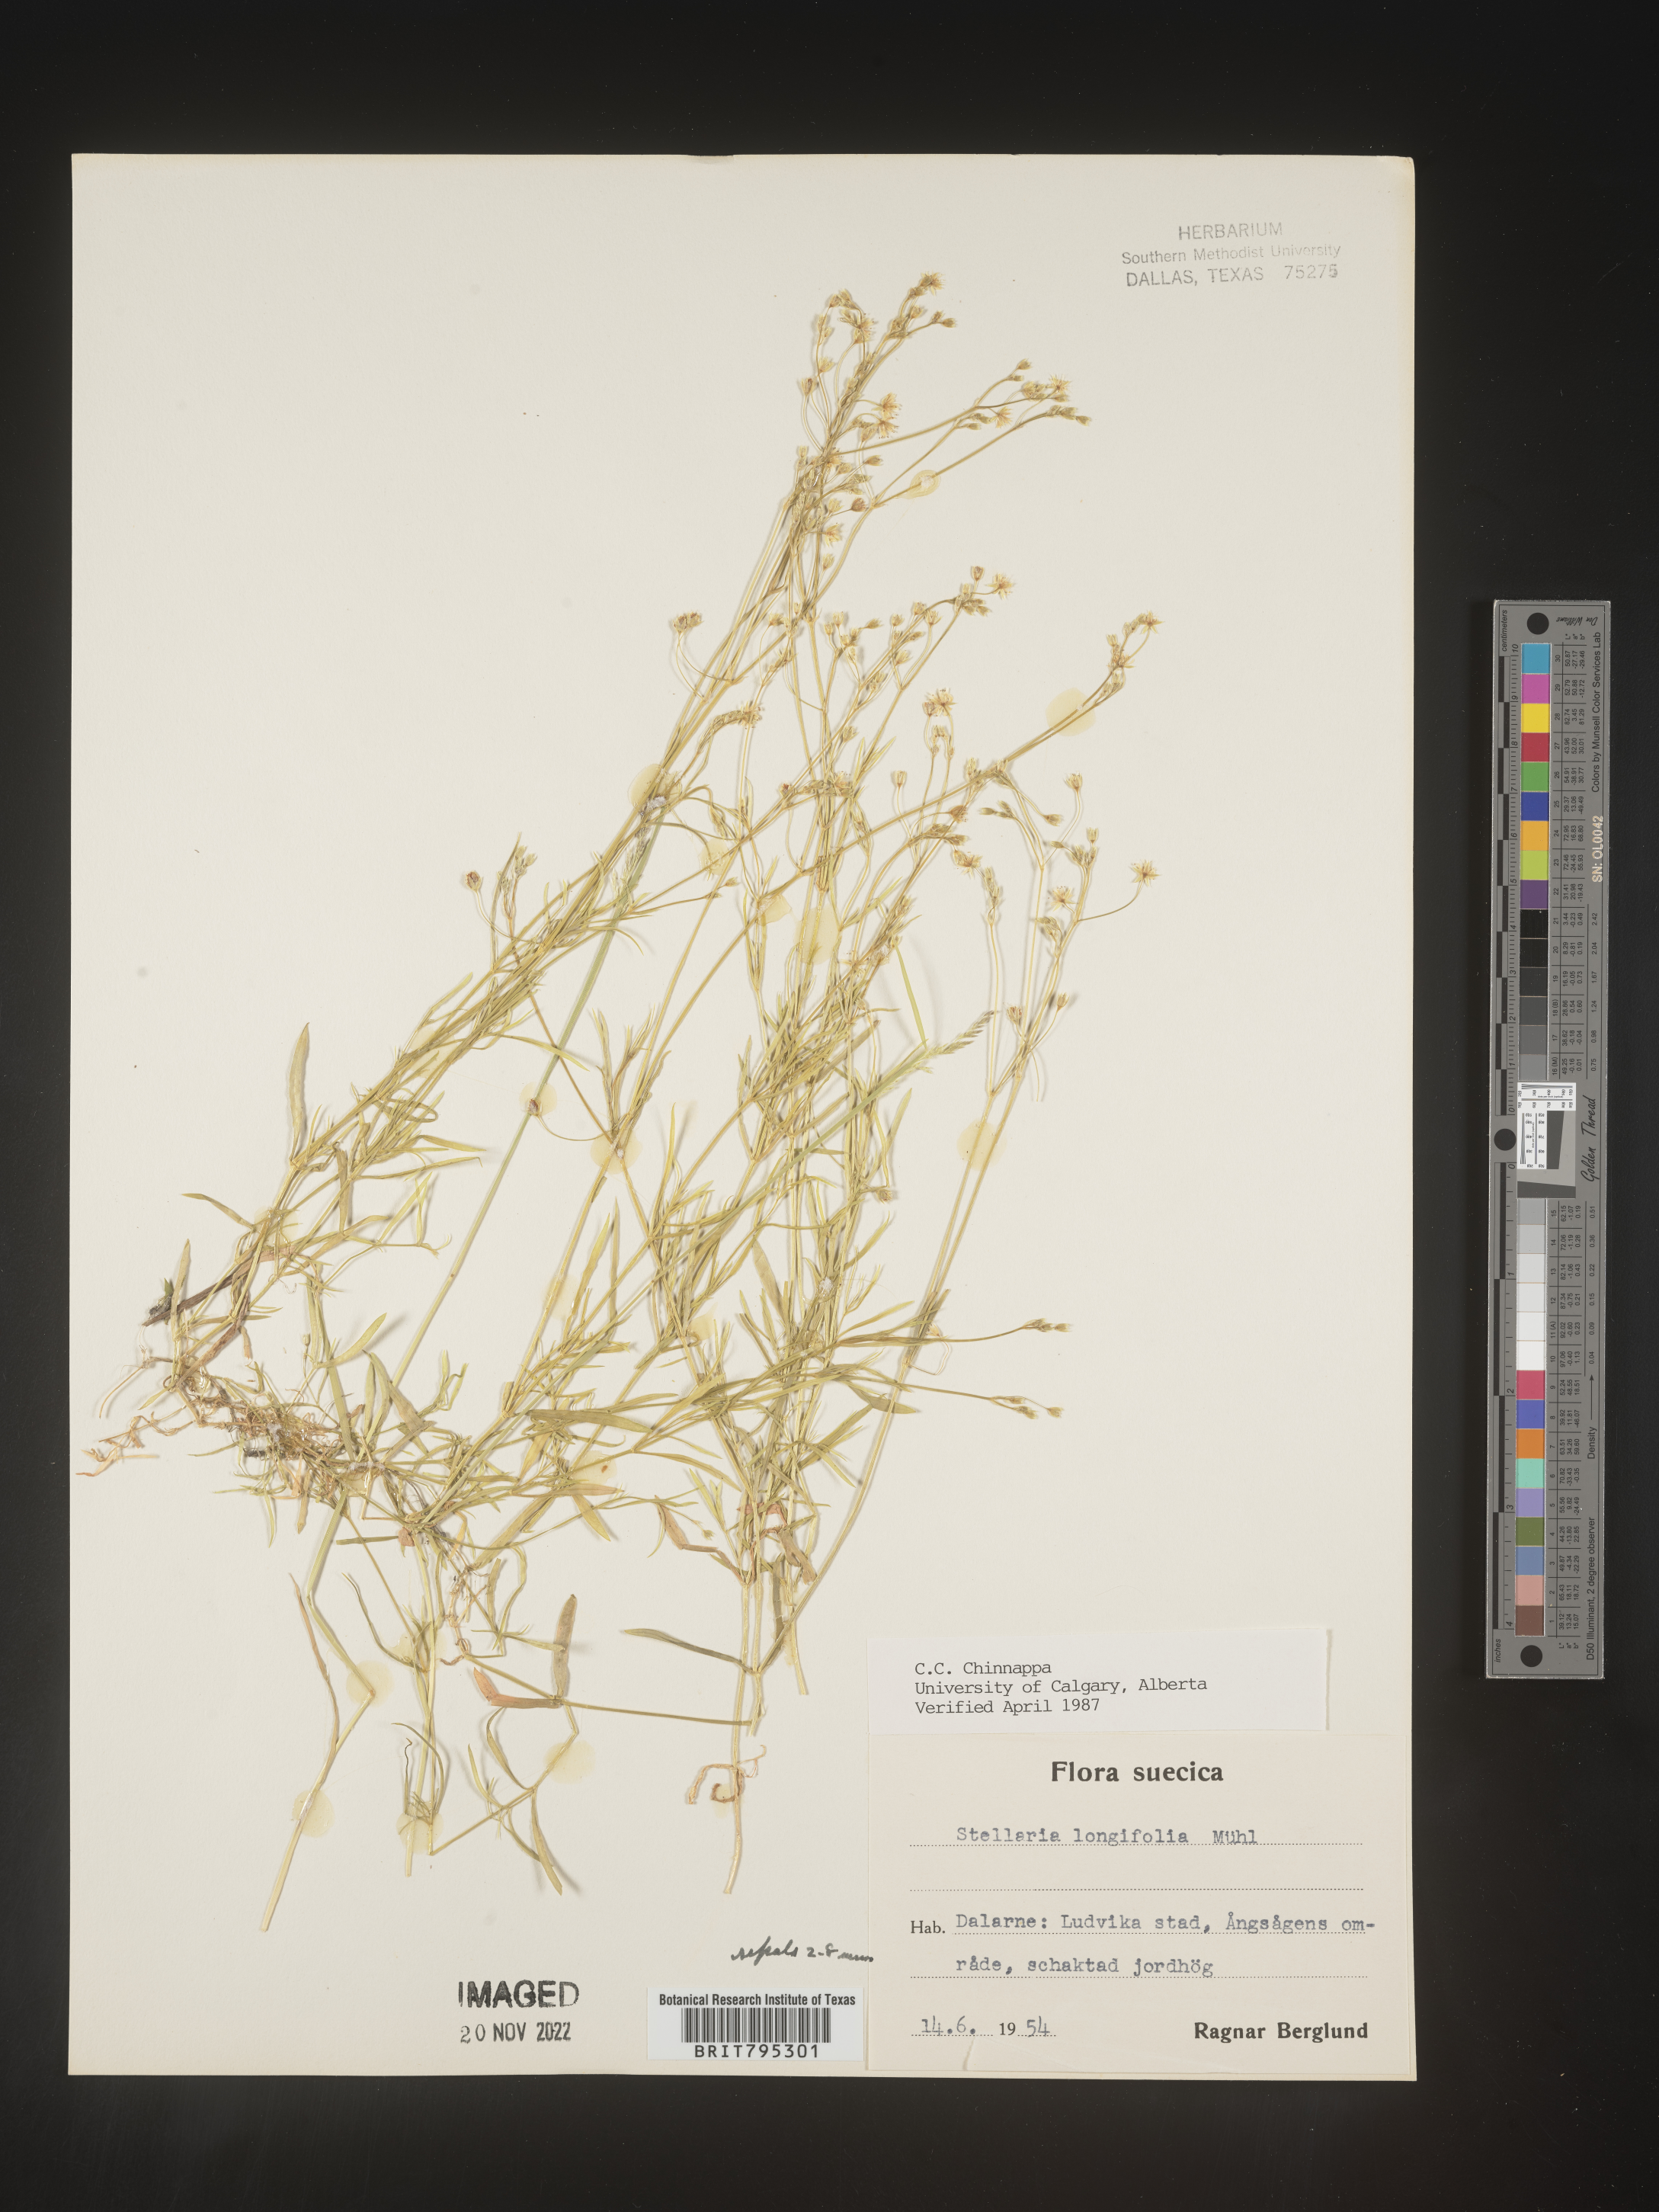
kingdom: Plantae
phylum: Tracheophyta
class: Magnoliopsida
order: Caryophyllales
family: Caryophyllaceae
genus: Stellaria
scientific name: Stellaria
